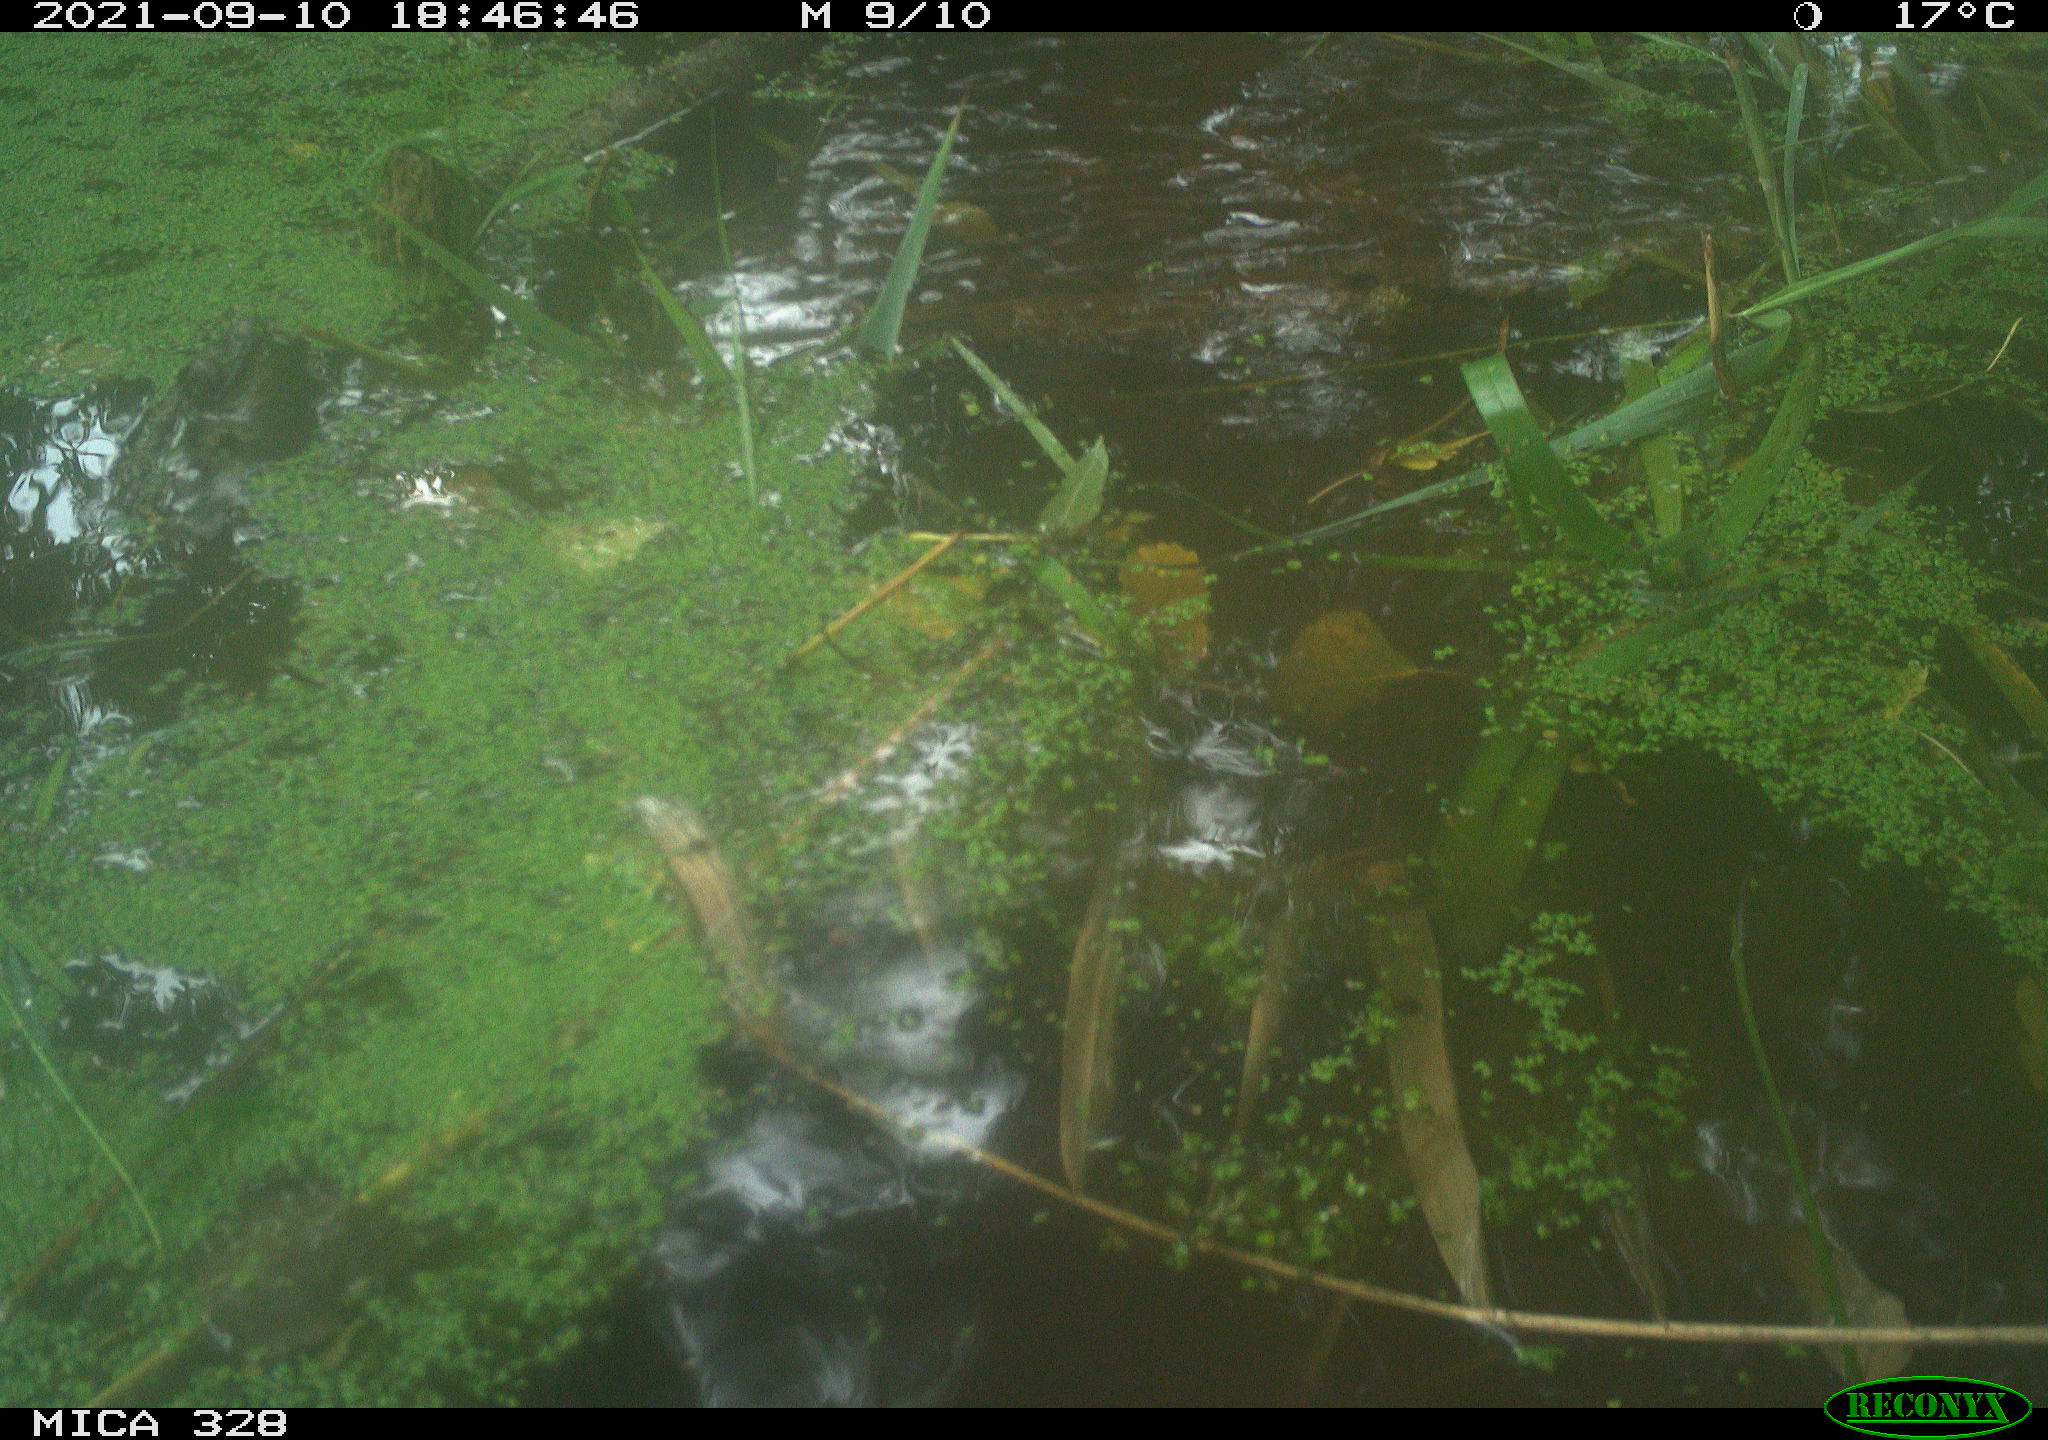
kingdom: Animalia
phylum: Chordata
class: Mammalia
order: Rodentia
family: Cricetidae
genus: Ondatra
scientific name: Ondatra zibethicus
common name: Muskrat
